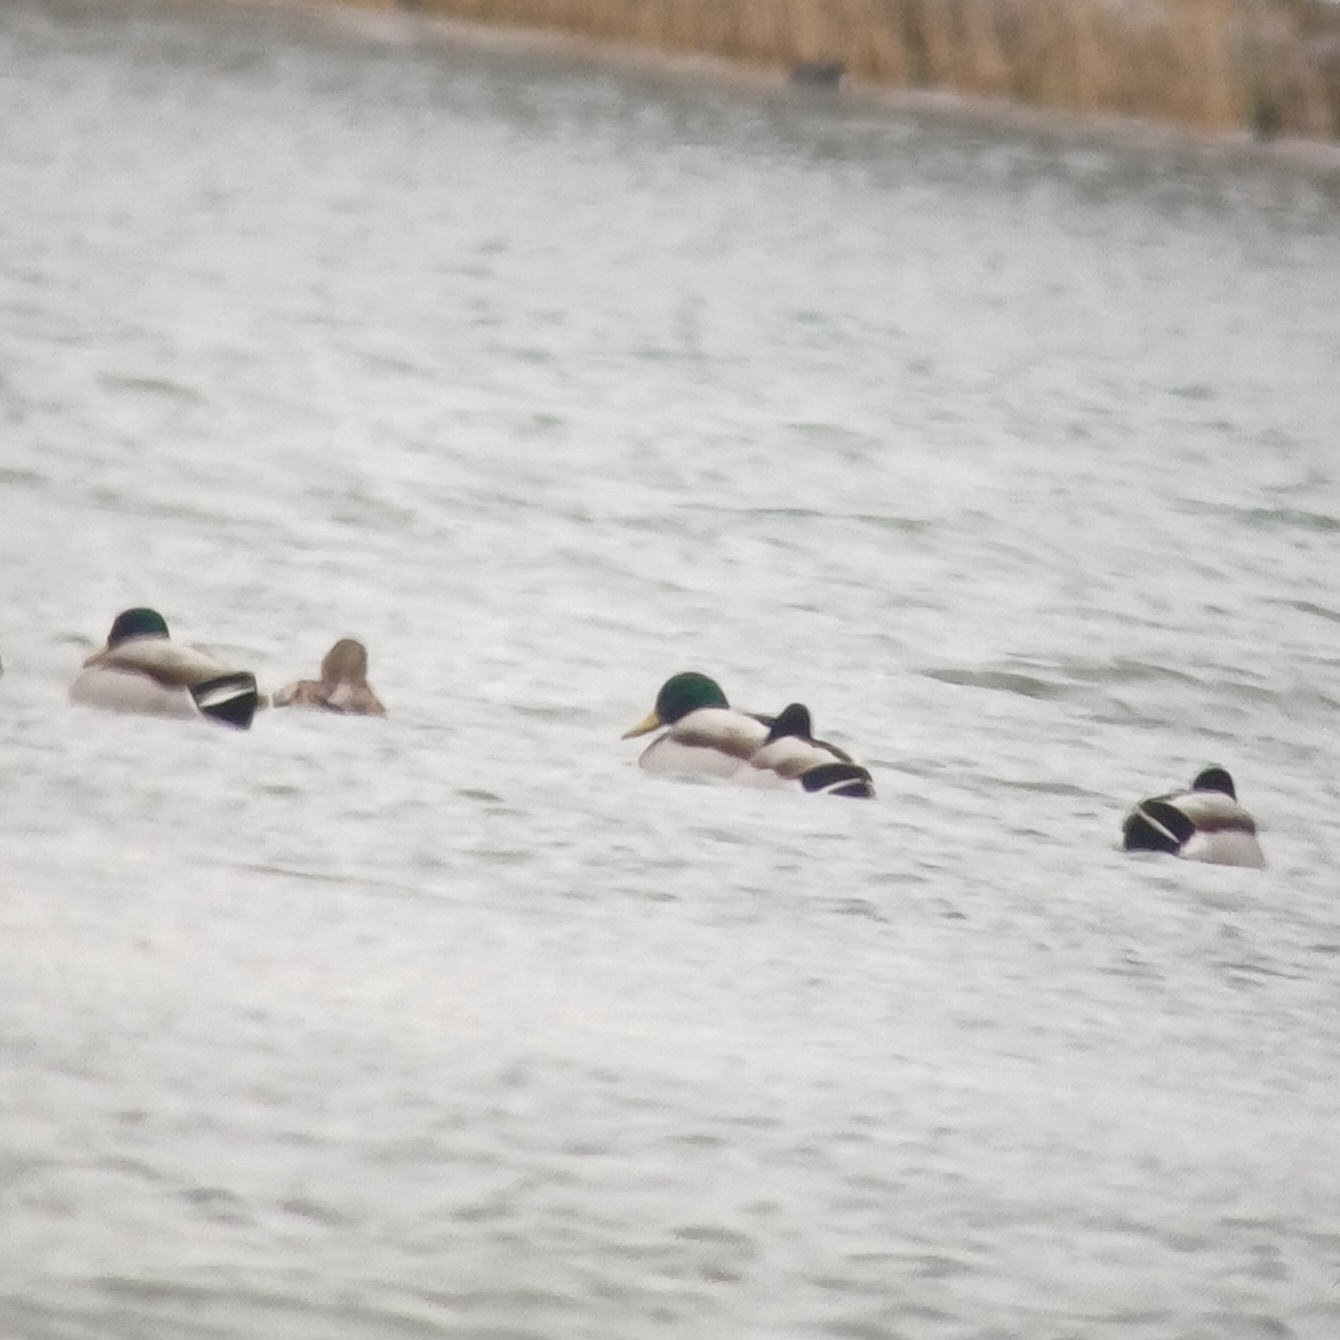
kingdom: Animalia
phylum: Chordata
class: Aves
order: Anseriformes
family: Anatidae
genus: Anas
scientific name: Anas platyrhynchos
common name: Gråand
